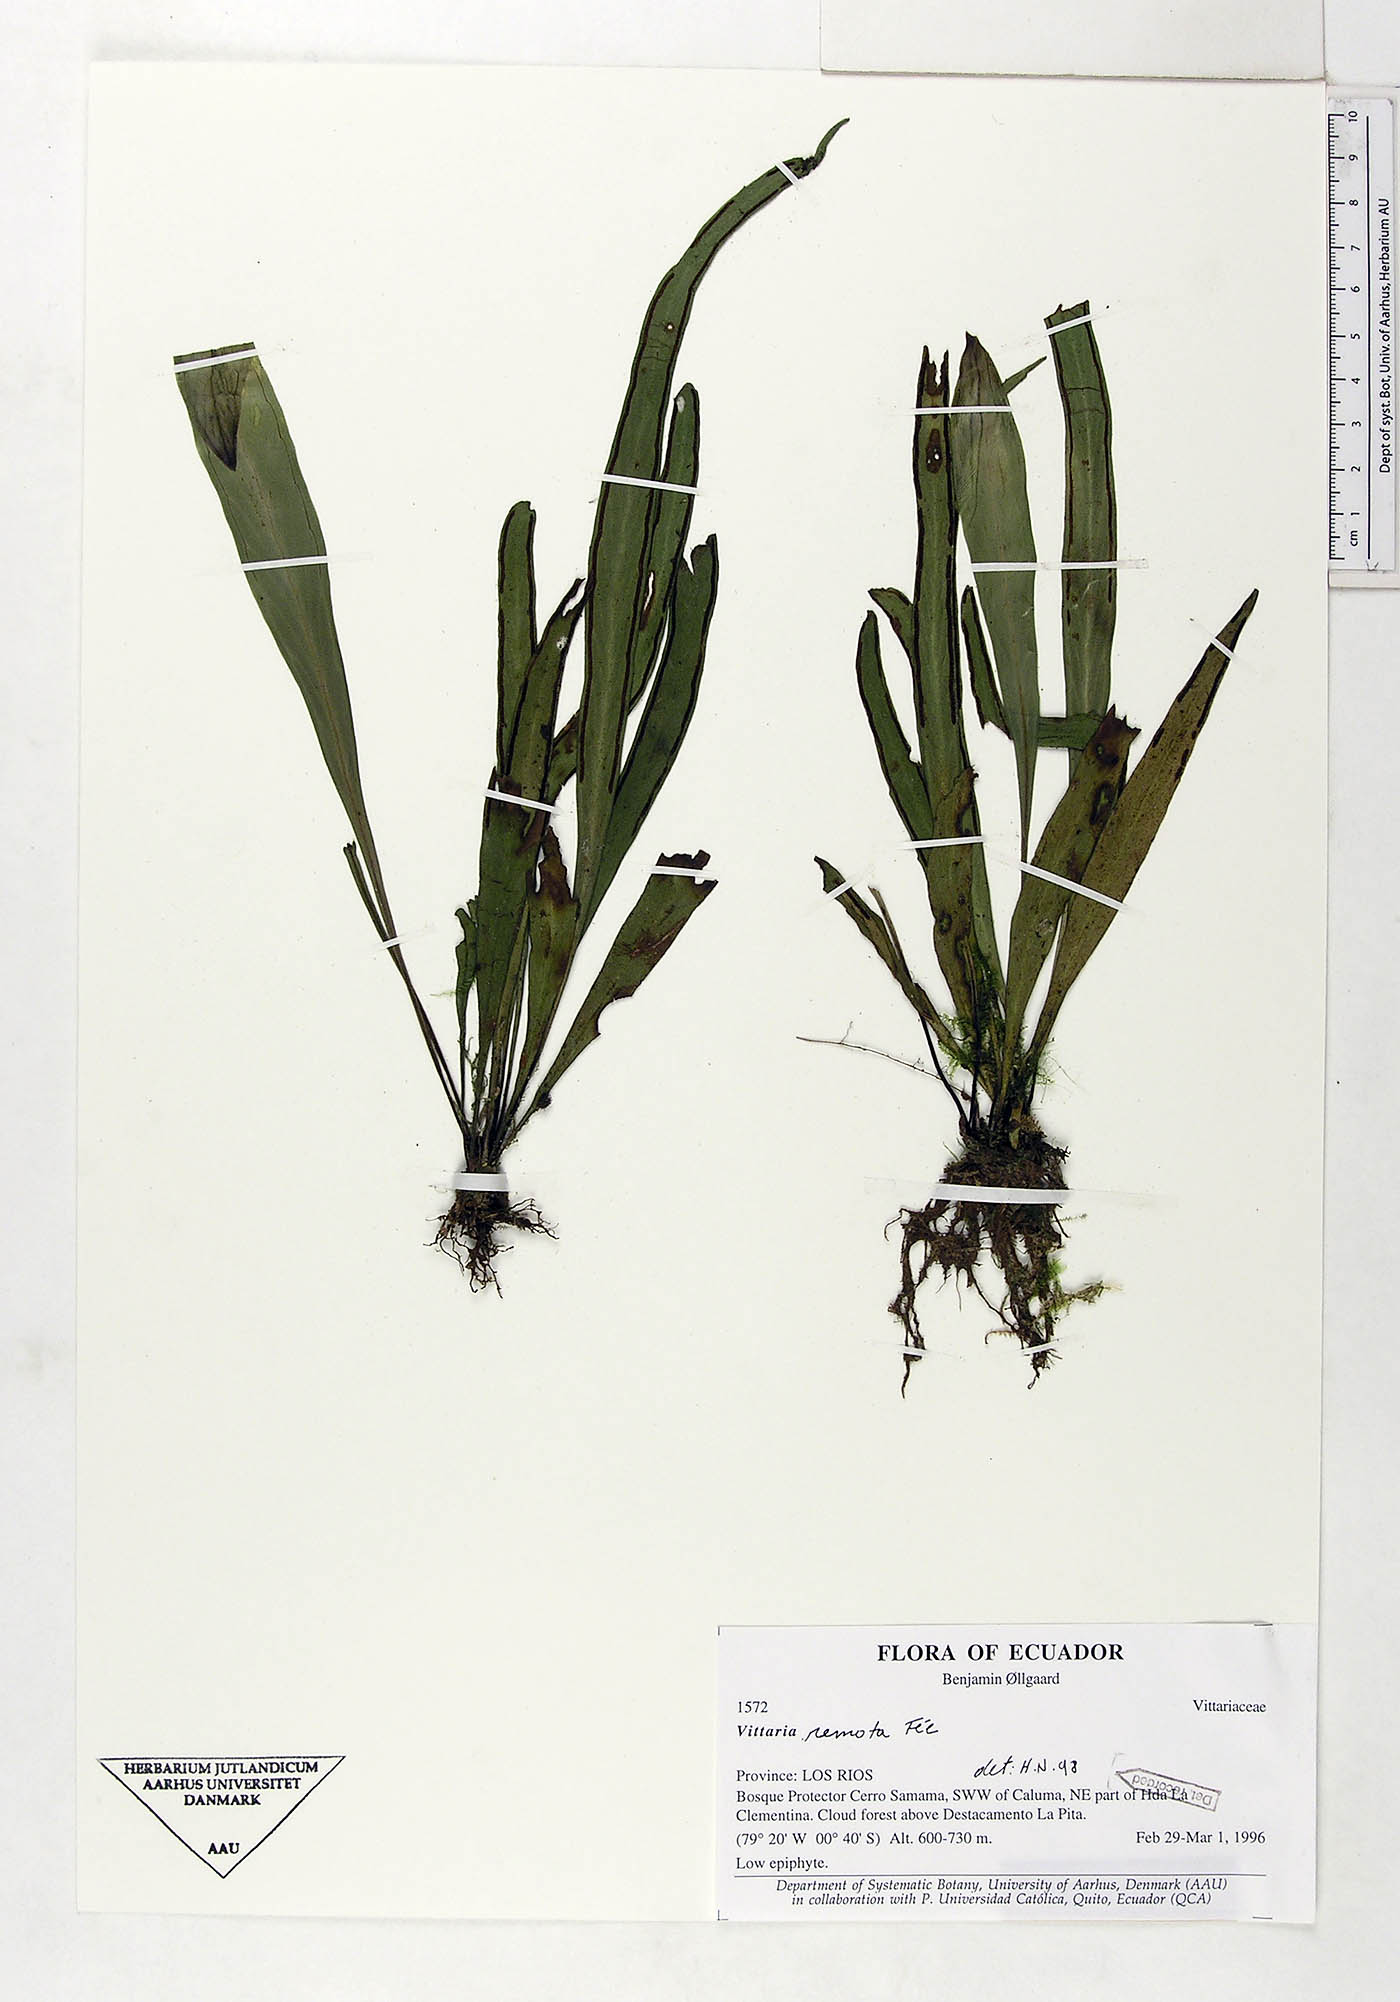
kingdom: Plantae
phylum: Tracheophyta
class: Polypodiopsida
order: Polypodiales
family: Pteridaceae
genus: Radiovittaria
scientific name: Radiovittaria remota
